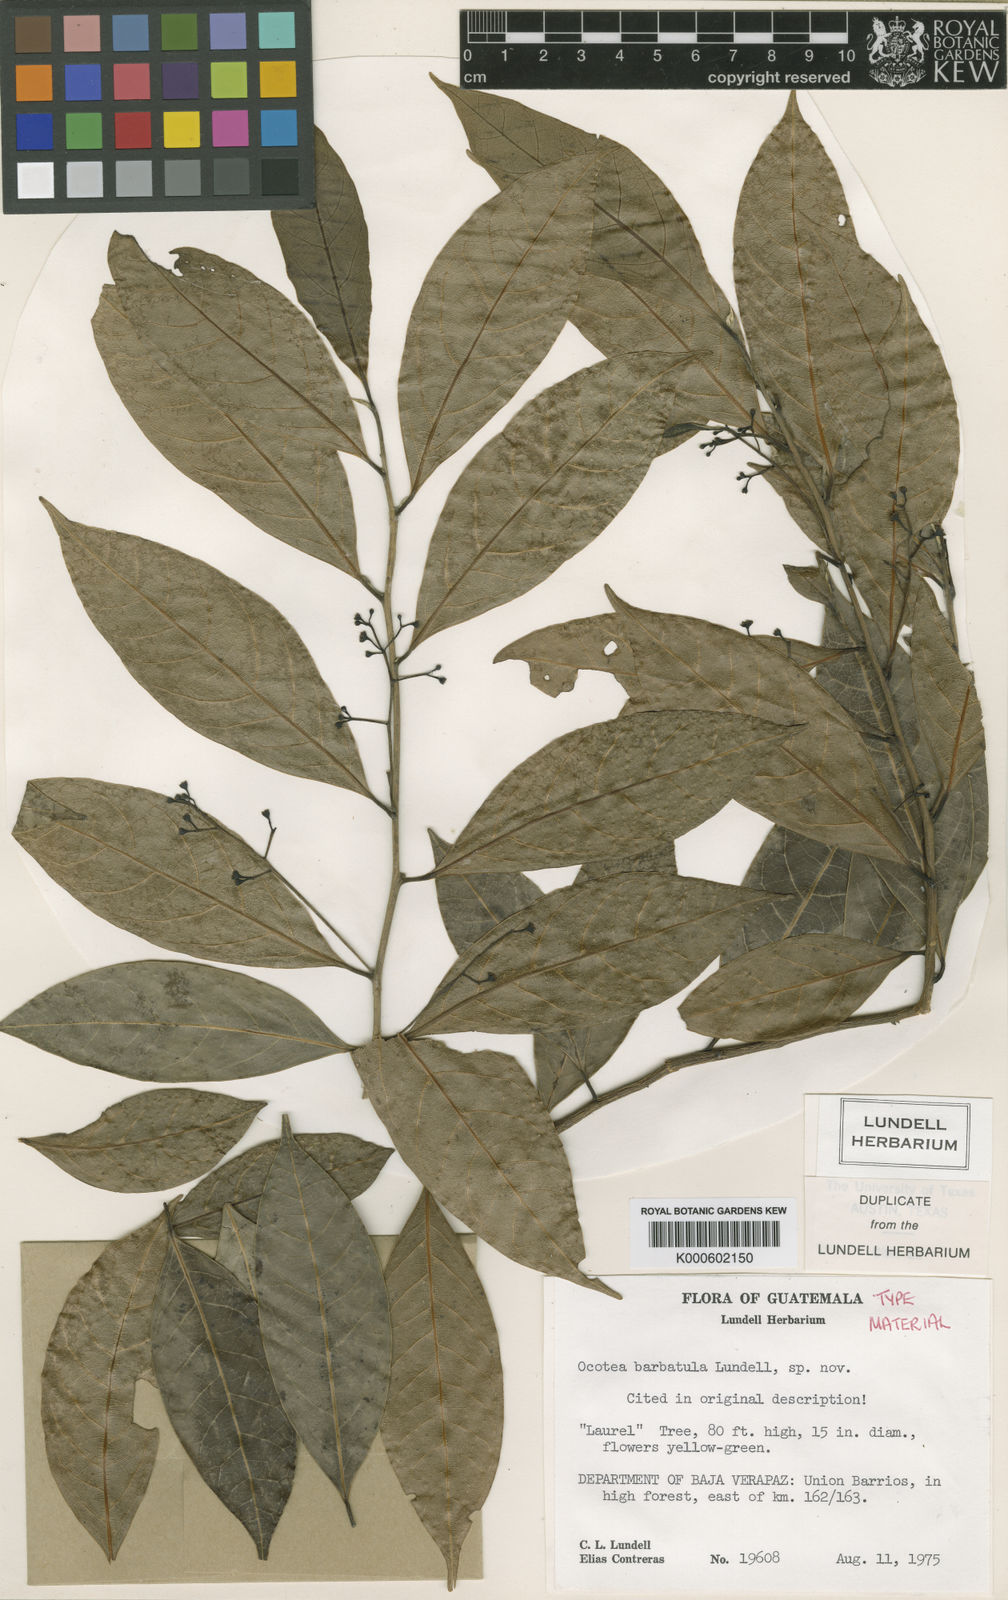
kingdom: Plantae
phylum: Tracheophyta
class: Magnoliopsida
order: Laurales
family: Lauraceae
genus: Ocotea
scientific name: Ocotea barbatula
